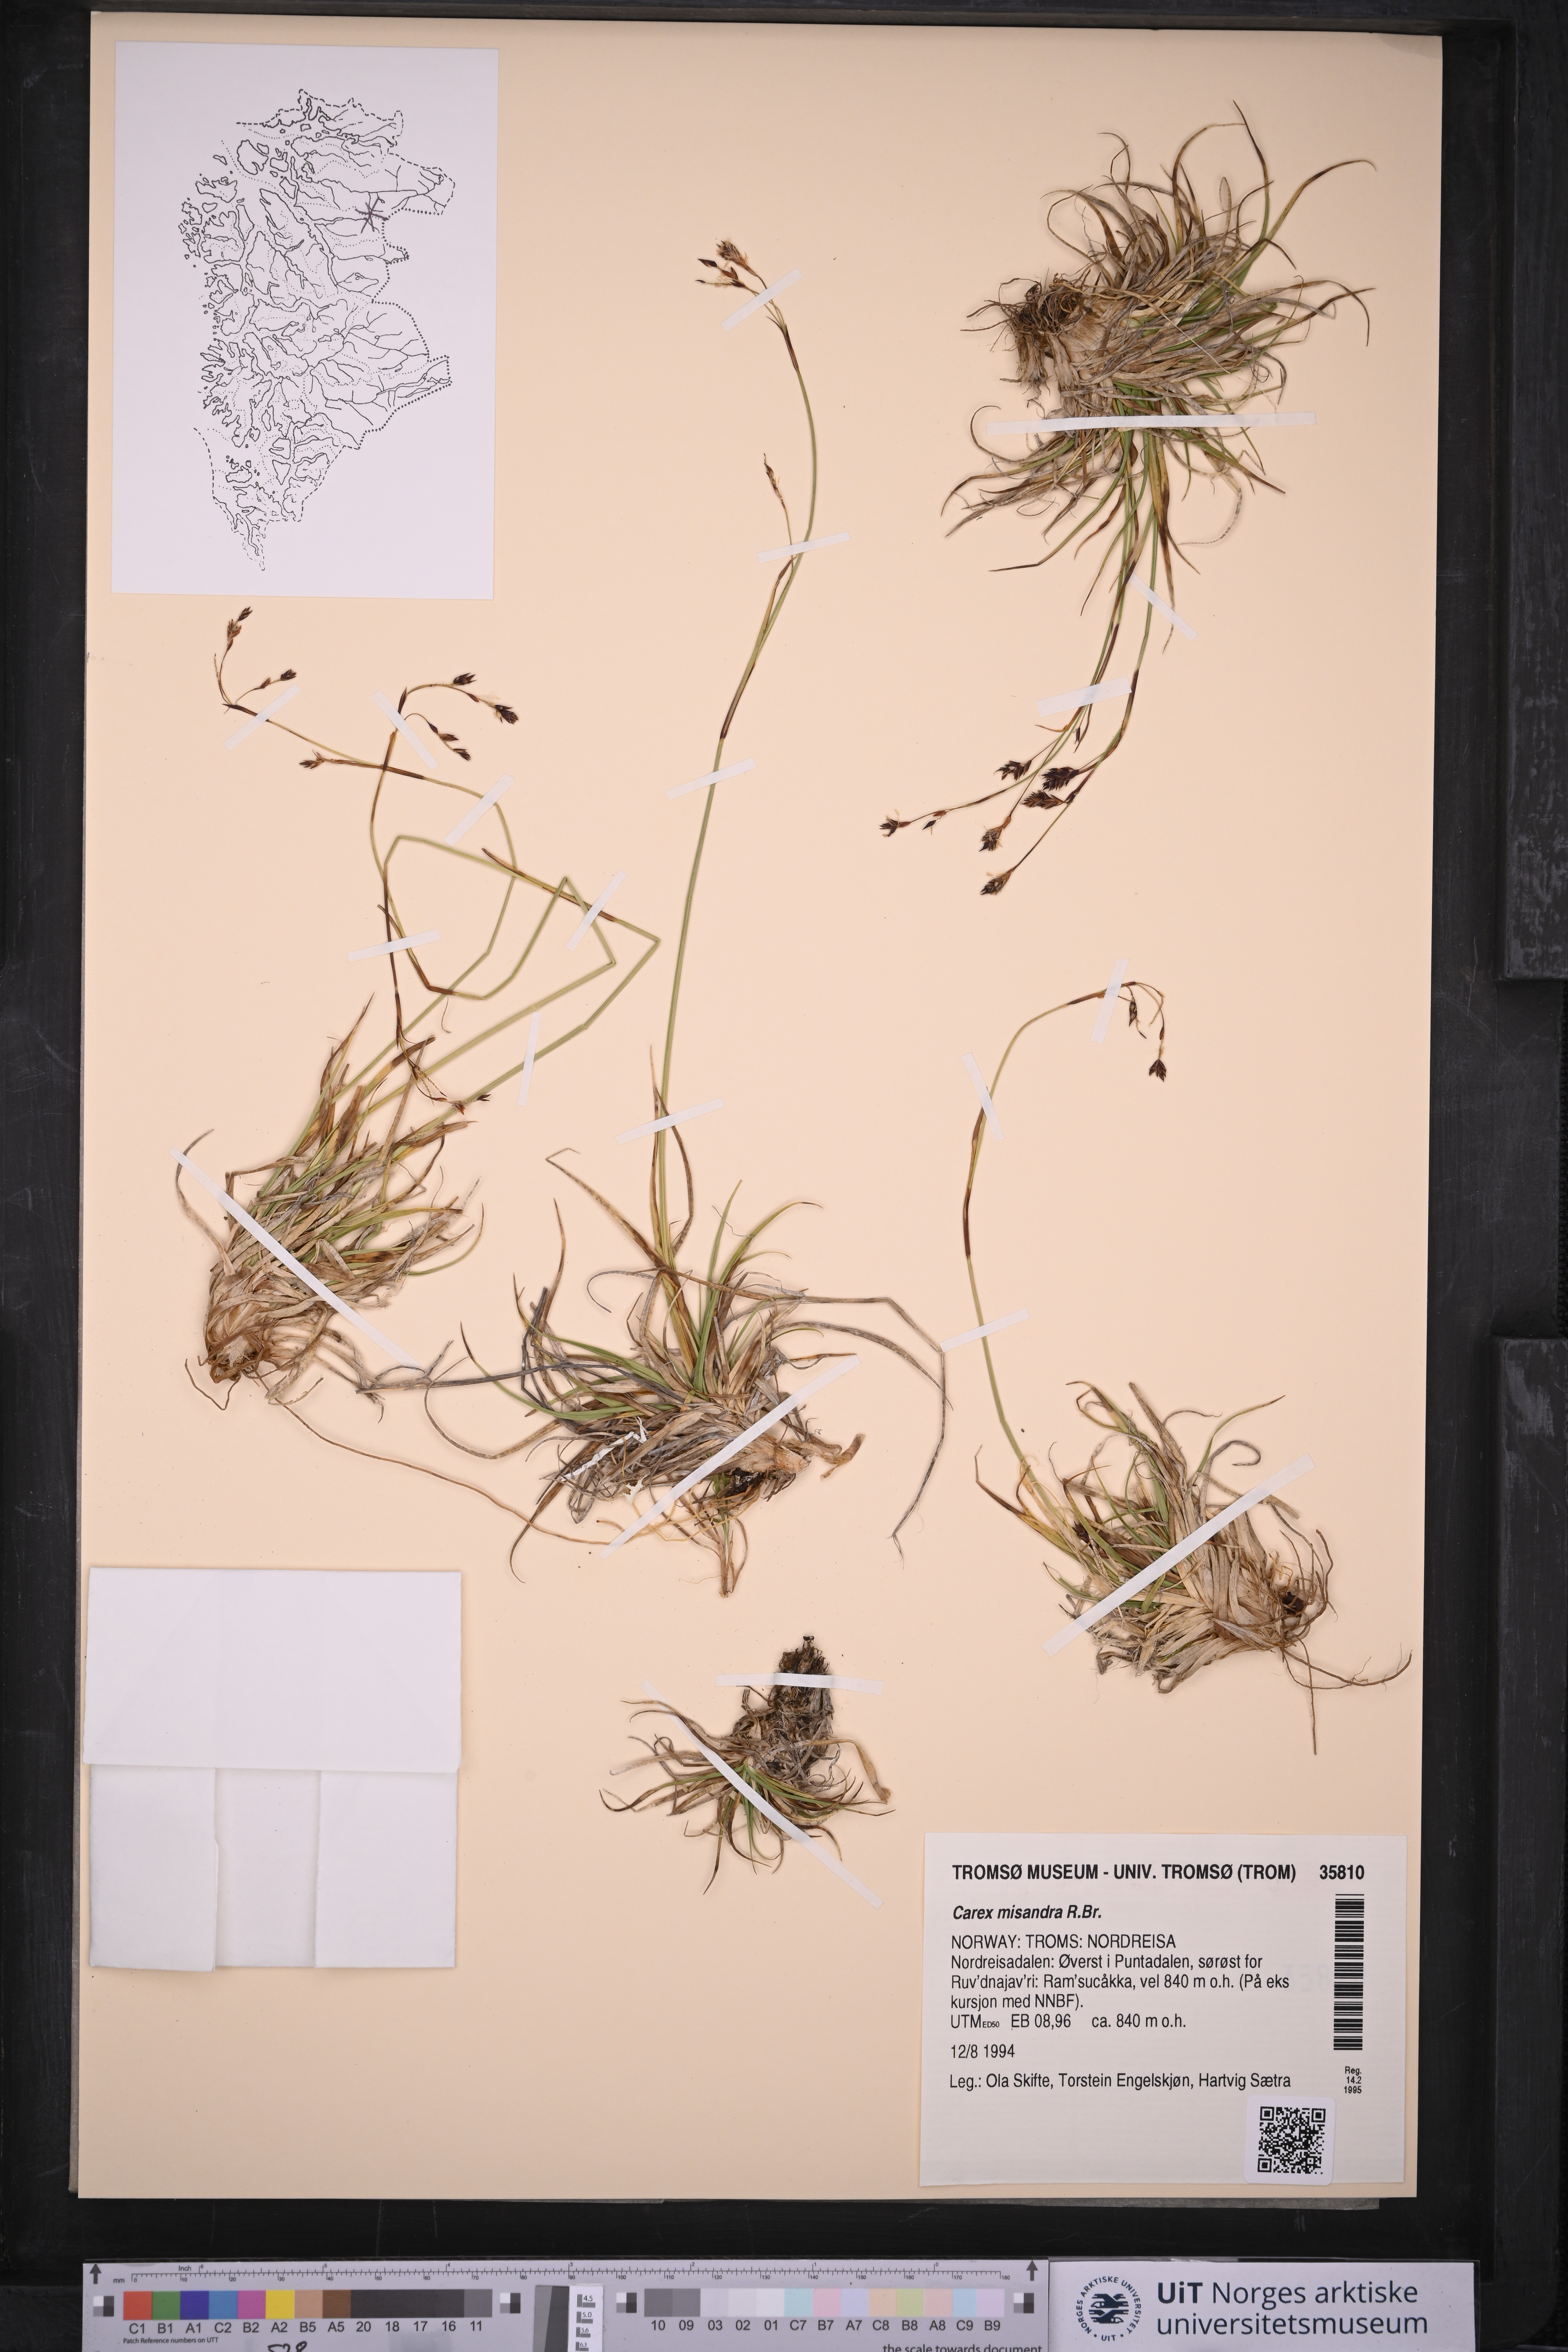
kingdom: Plantae
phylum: Tracheophyta
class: Liliopsida
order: Poales
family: Cyperaceae
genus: Carex
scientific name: Carex fuliginosa
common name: Few-flowered sedge
